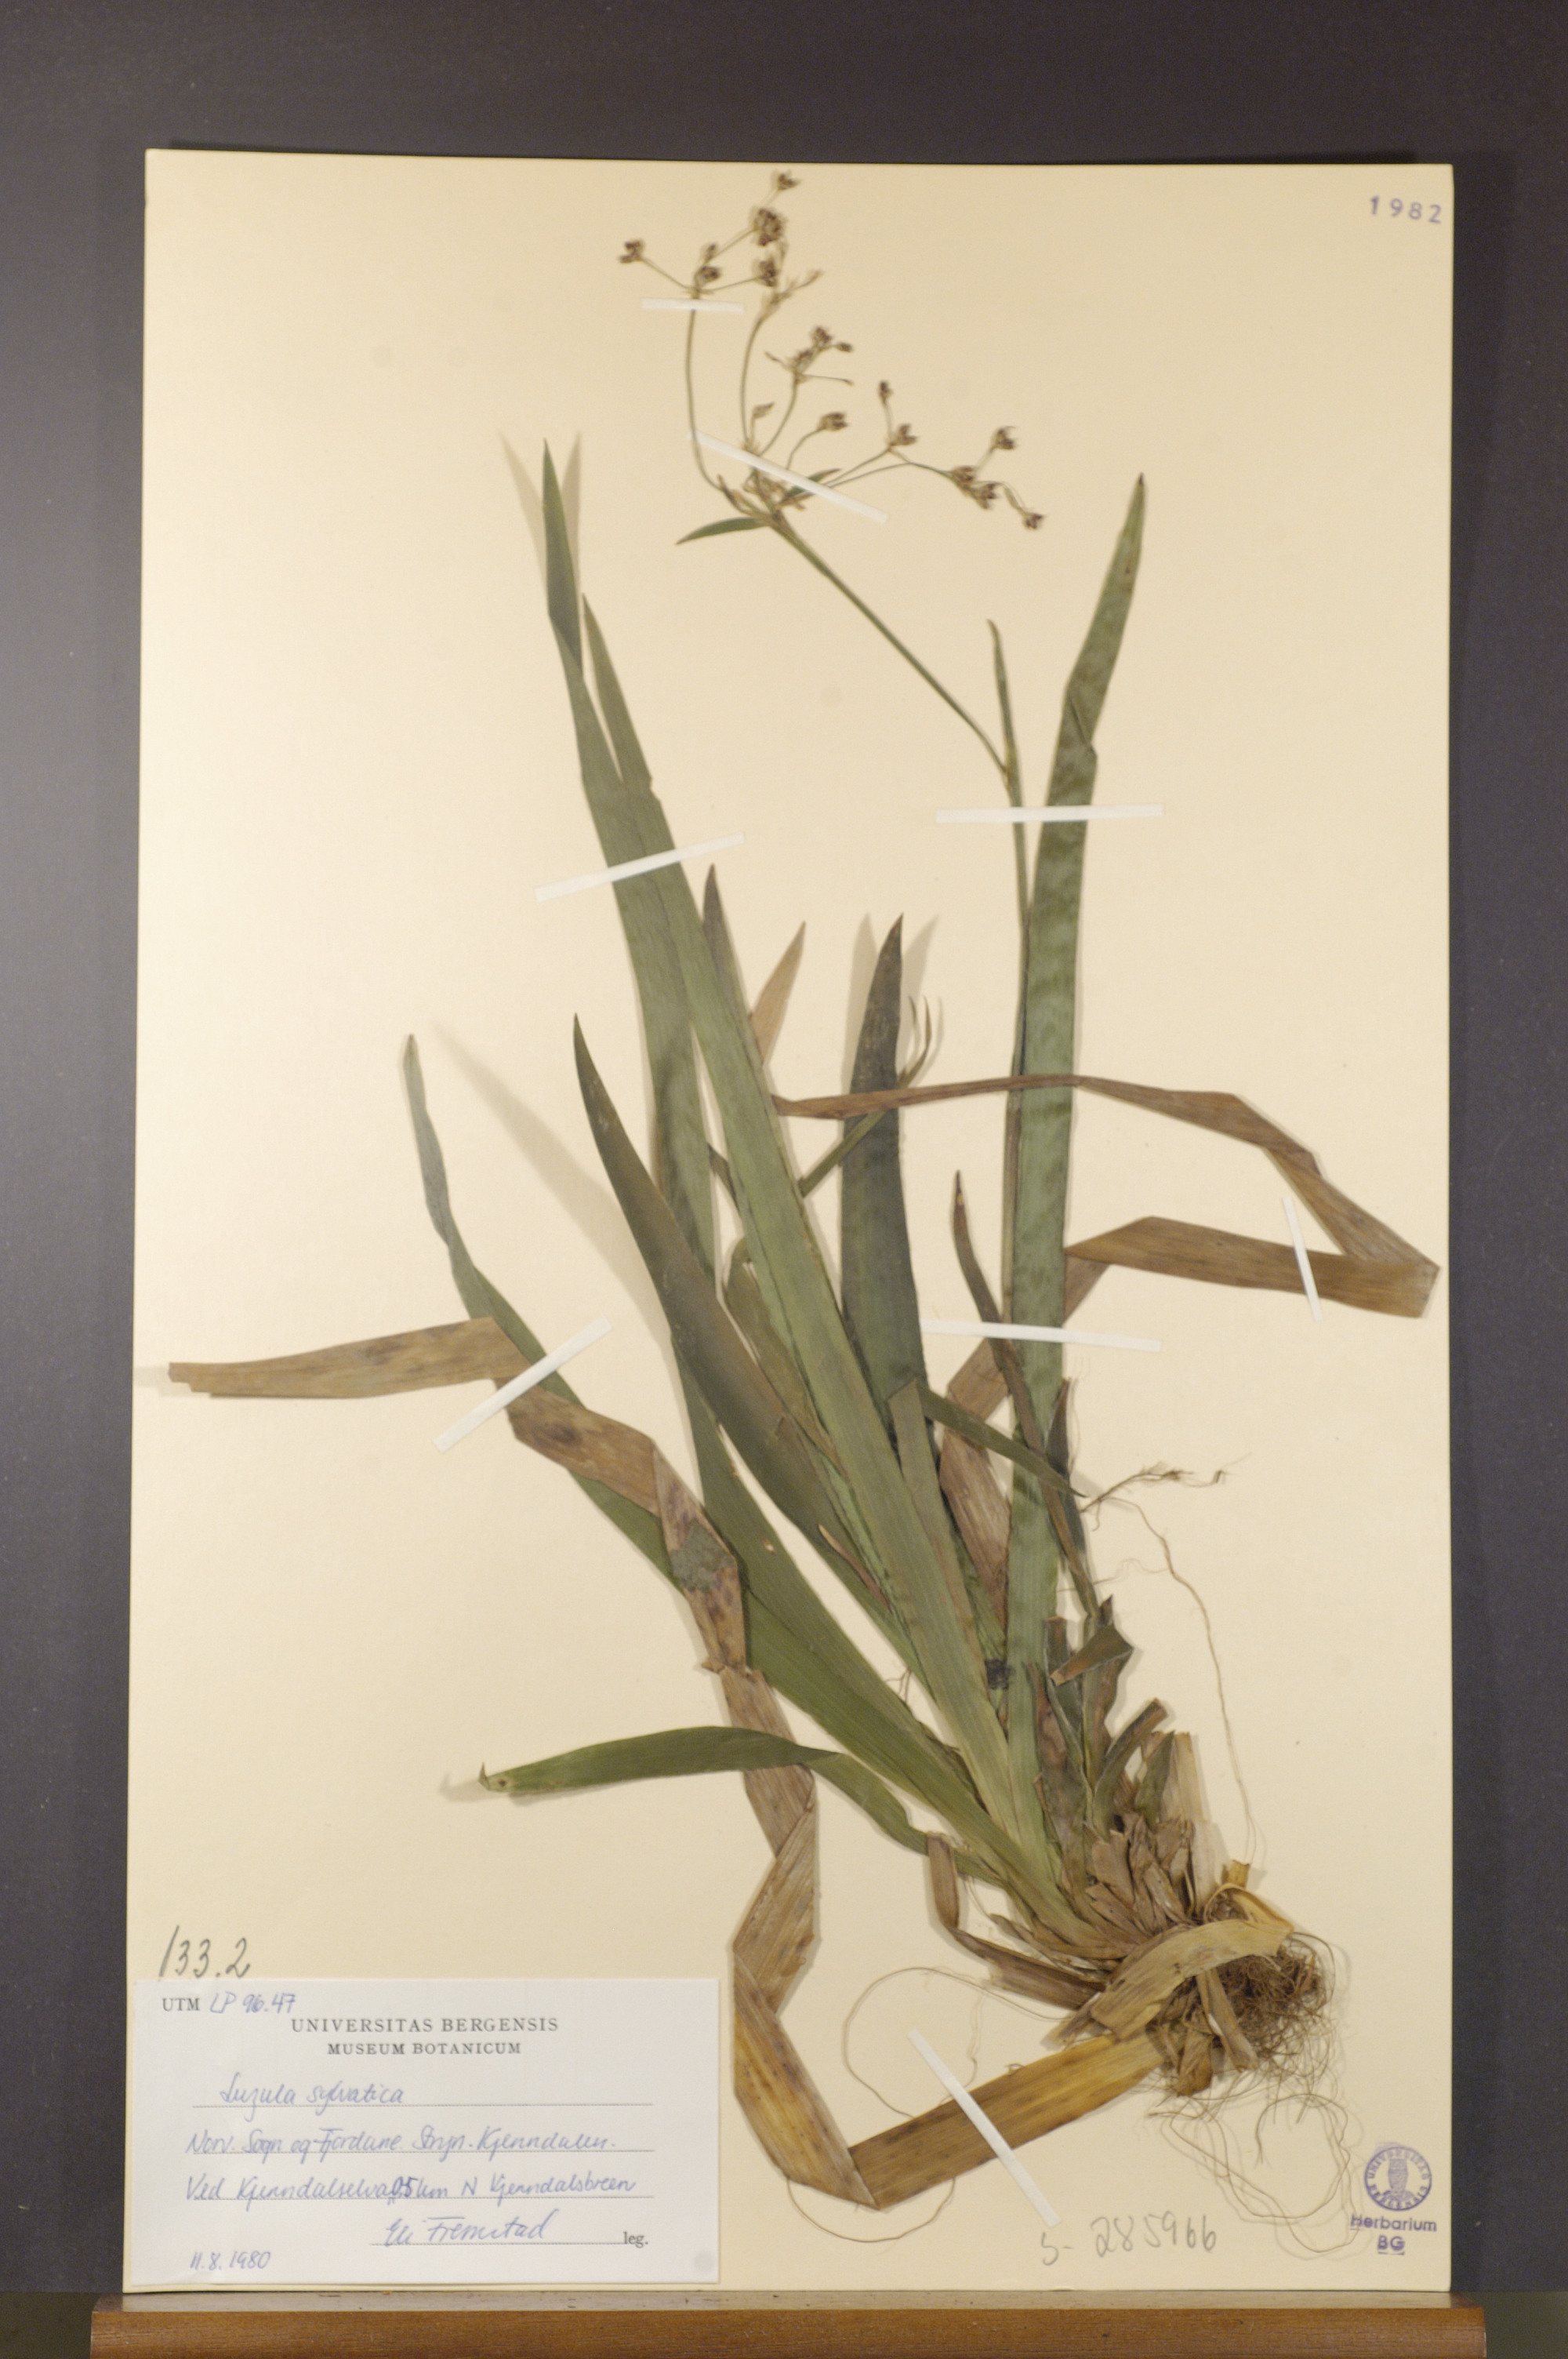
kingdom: Plantae
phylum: Tracheophyta
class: Liliopsida
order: Poales
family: Juncaceae
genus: Luzula
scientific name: Luzula sylvatica
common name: Great wood-rush
